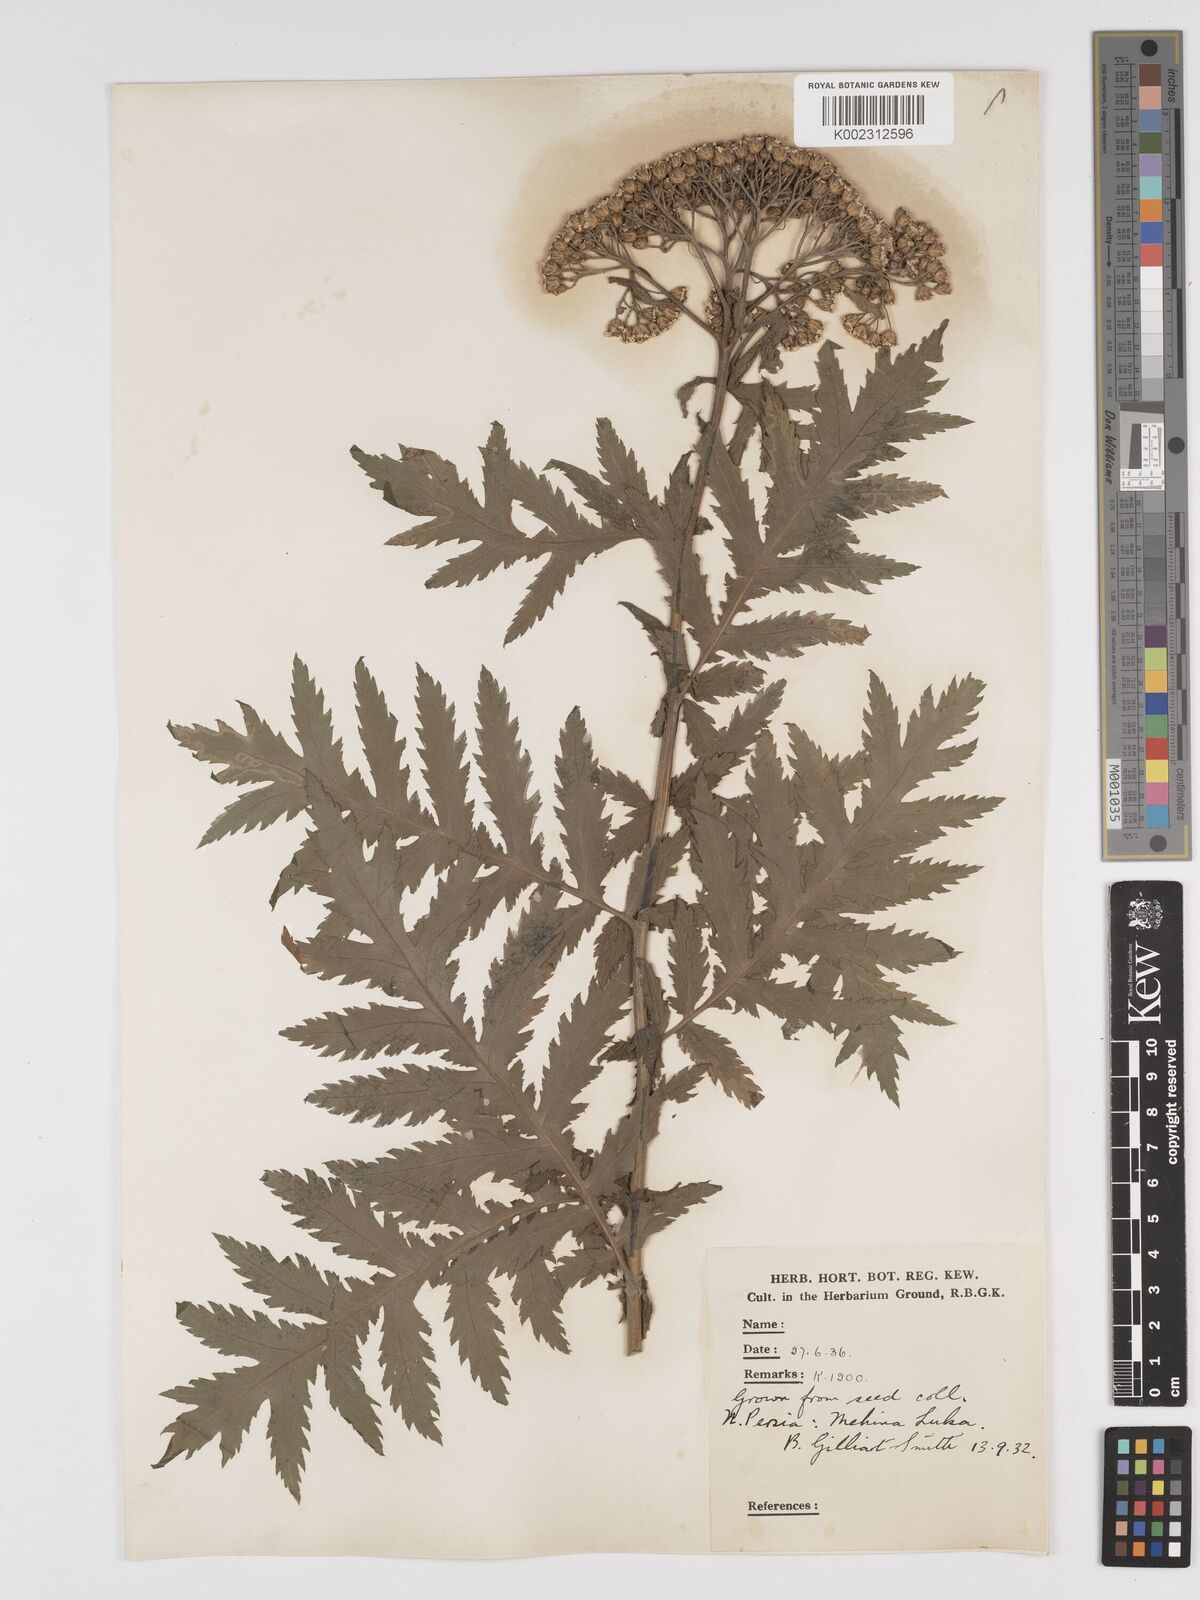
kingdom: Plantae
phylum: Tracheophyta
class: Magnoliopsida
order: Asterales
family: Asteraceae
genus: Tanacetum
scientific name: Tanacetum macrophyllum
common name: Rayed tansy
